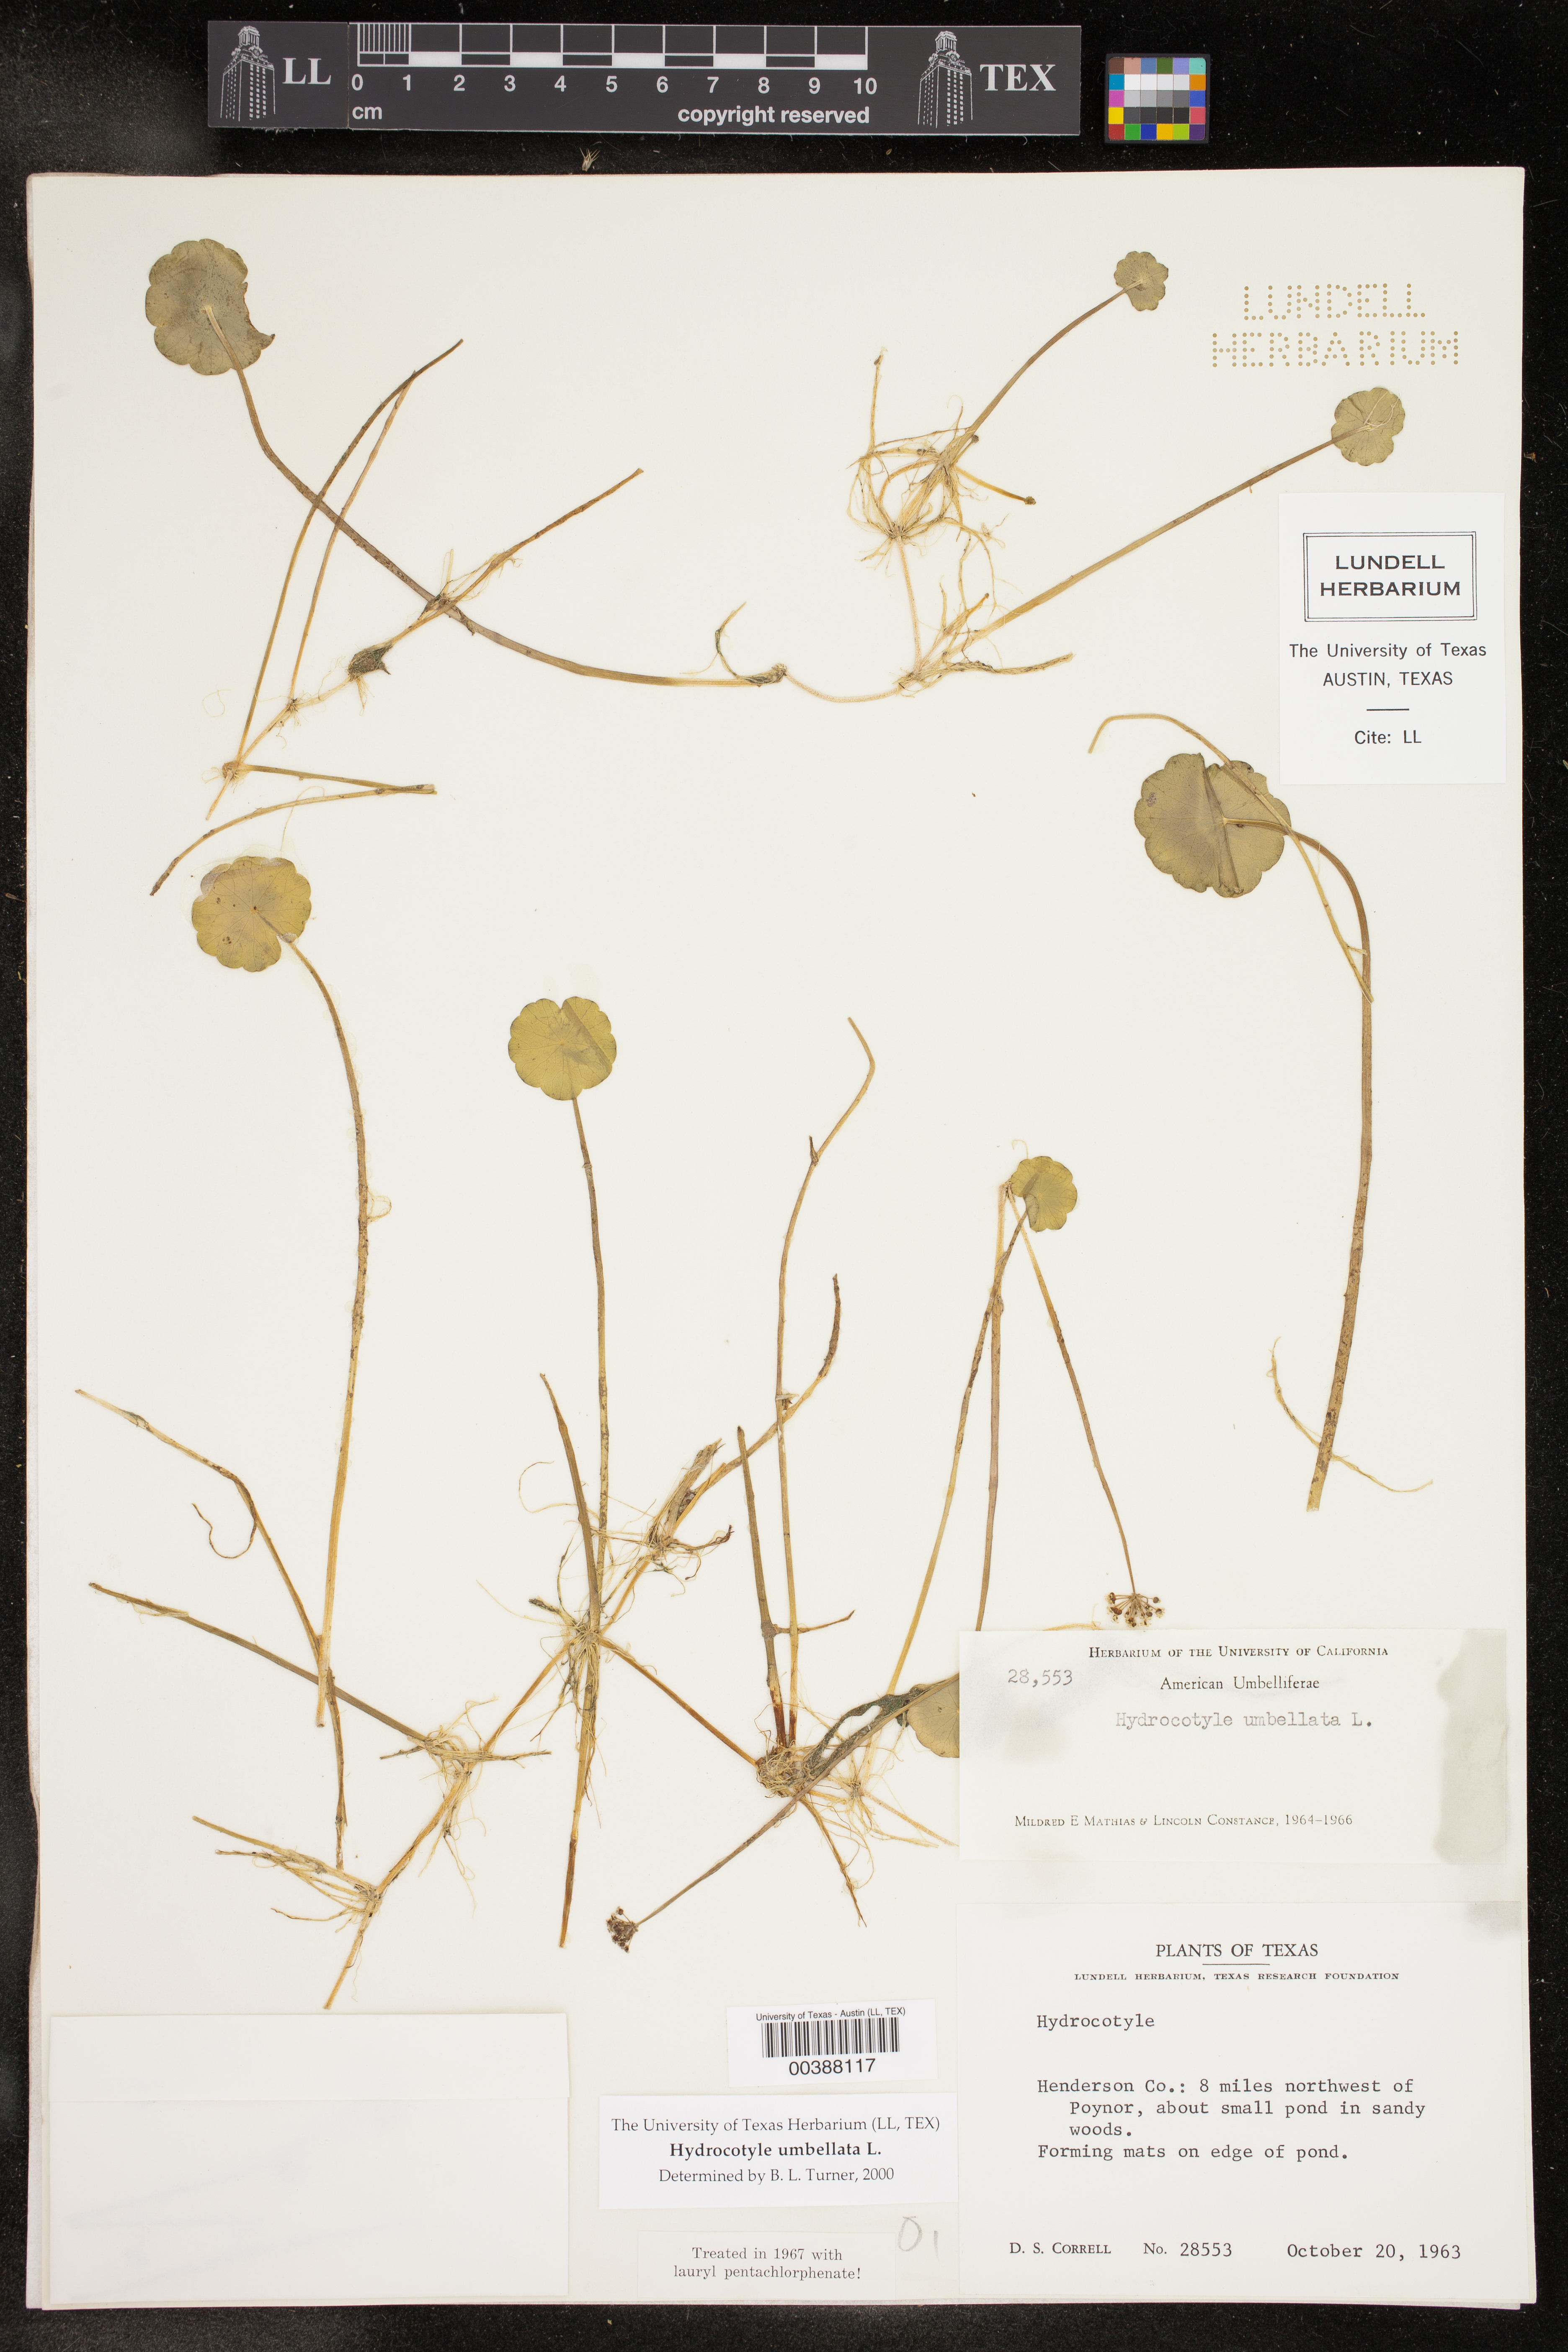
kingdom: Plantae
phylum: Tracheophyta
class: Magnoliopsida
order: Apiales
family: Araliaceae
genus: Hydrocotyle
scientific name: Hydrocotyle umbellata
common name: Water pennywort
